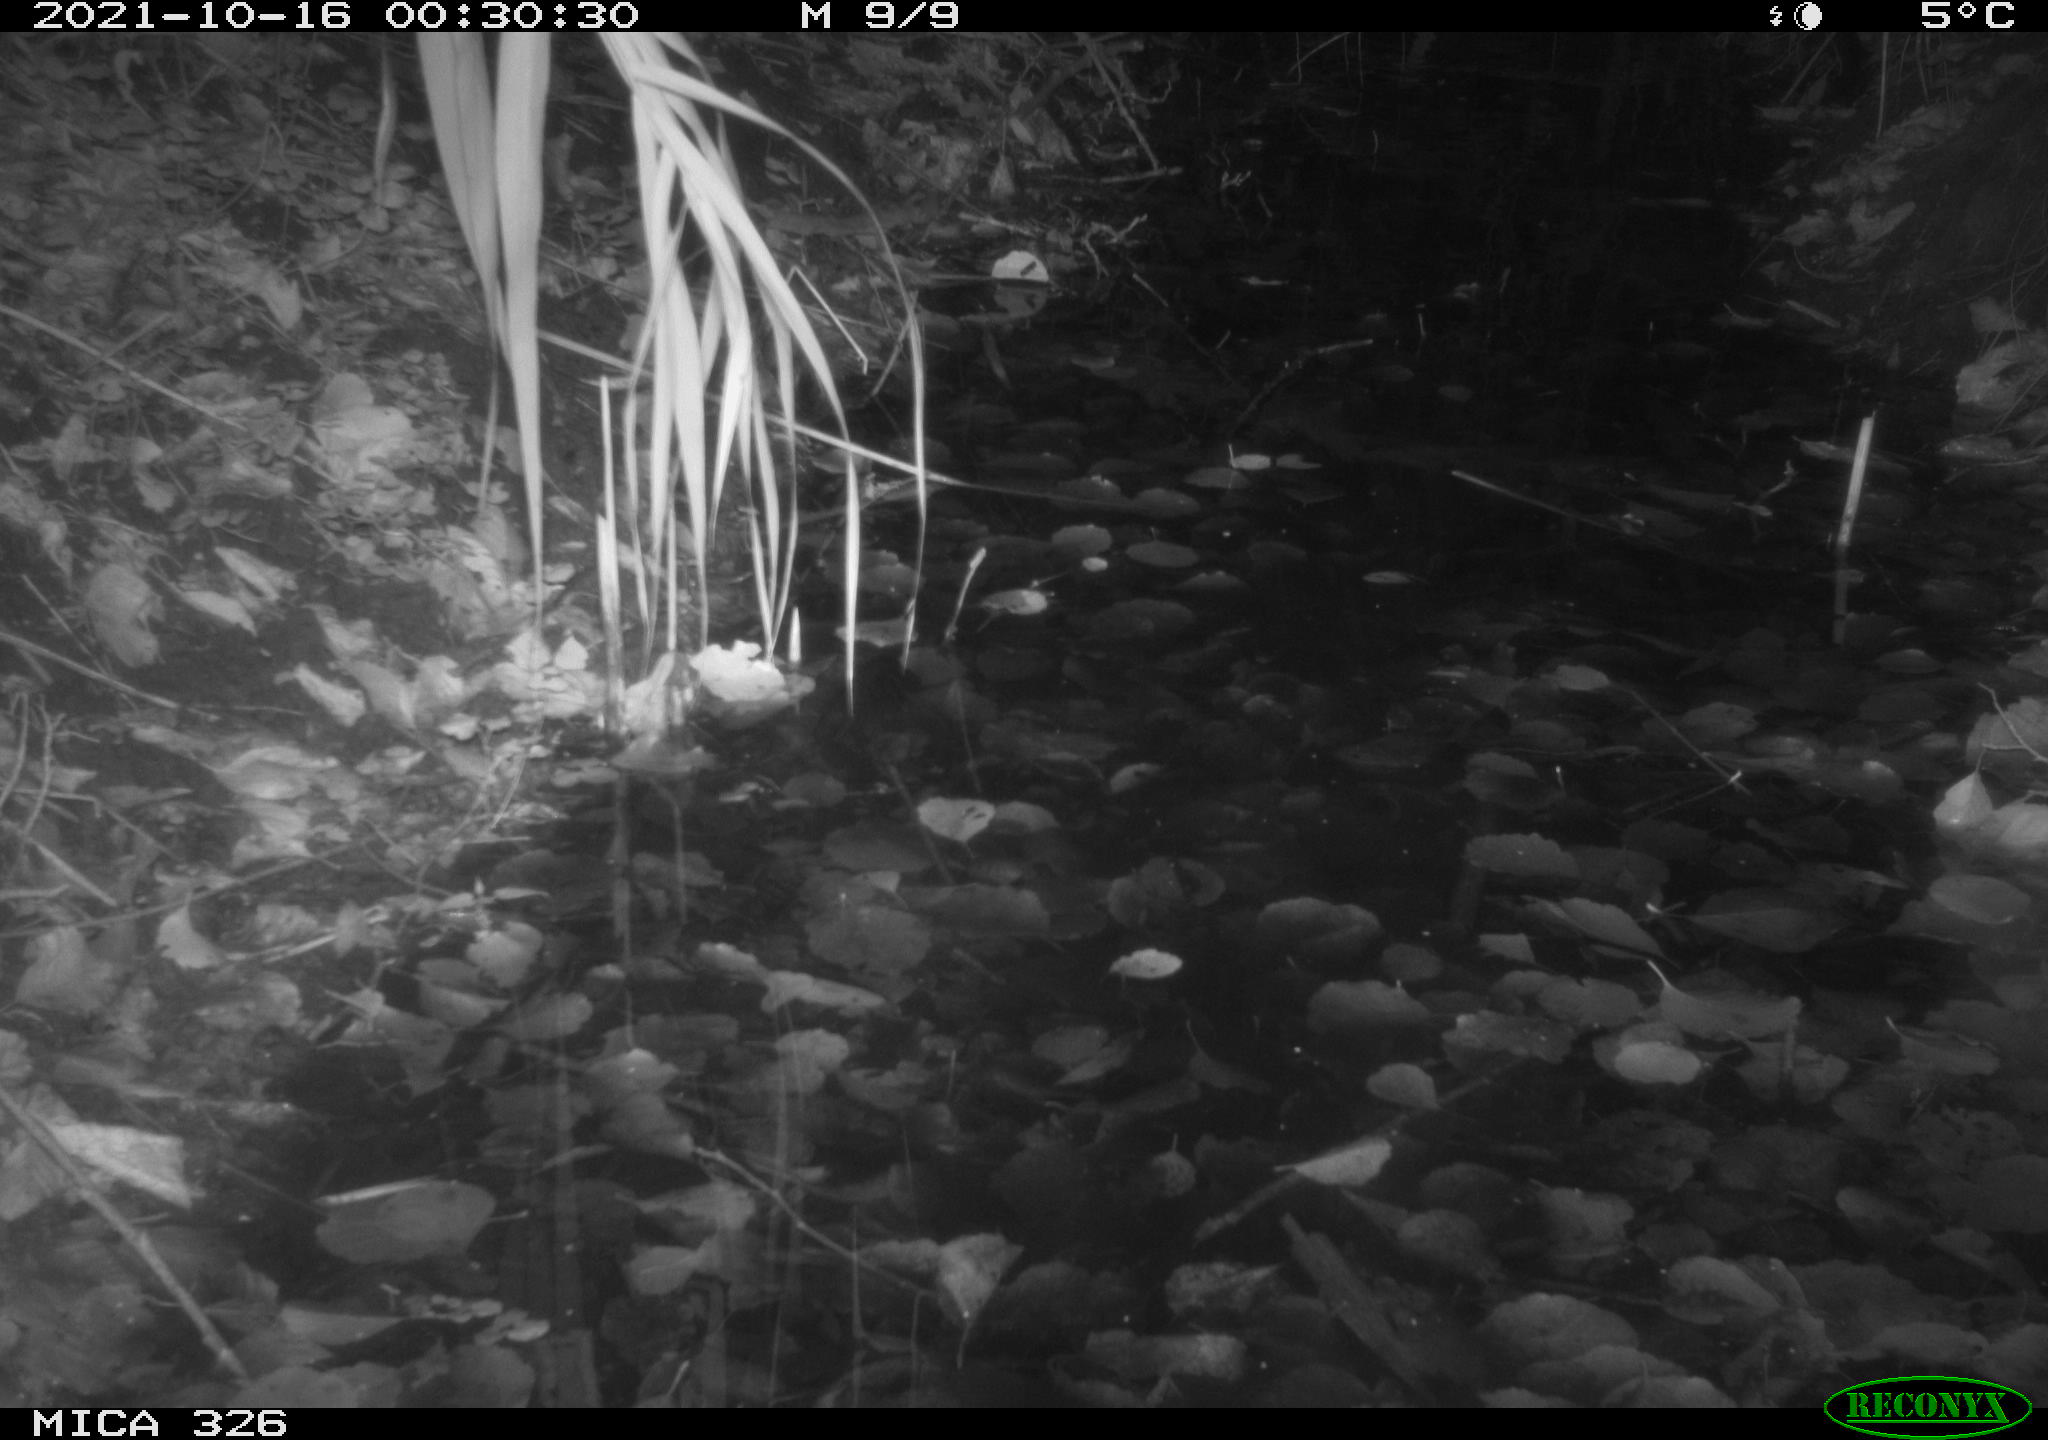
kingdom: Animalia
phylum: Chordata
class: Mammalia
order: Rodentia
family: Muridae
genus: Rattus
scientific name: Rattus norvegicus
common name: Brown rat
